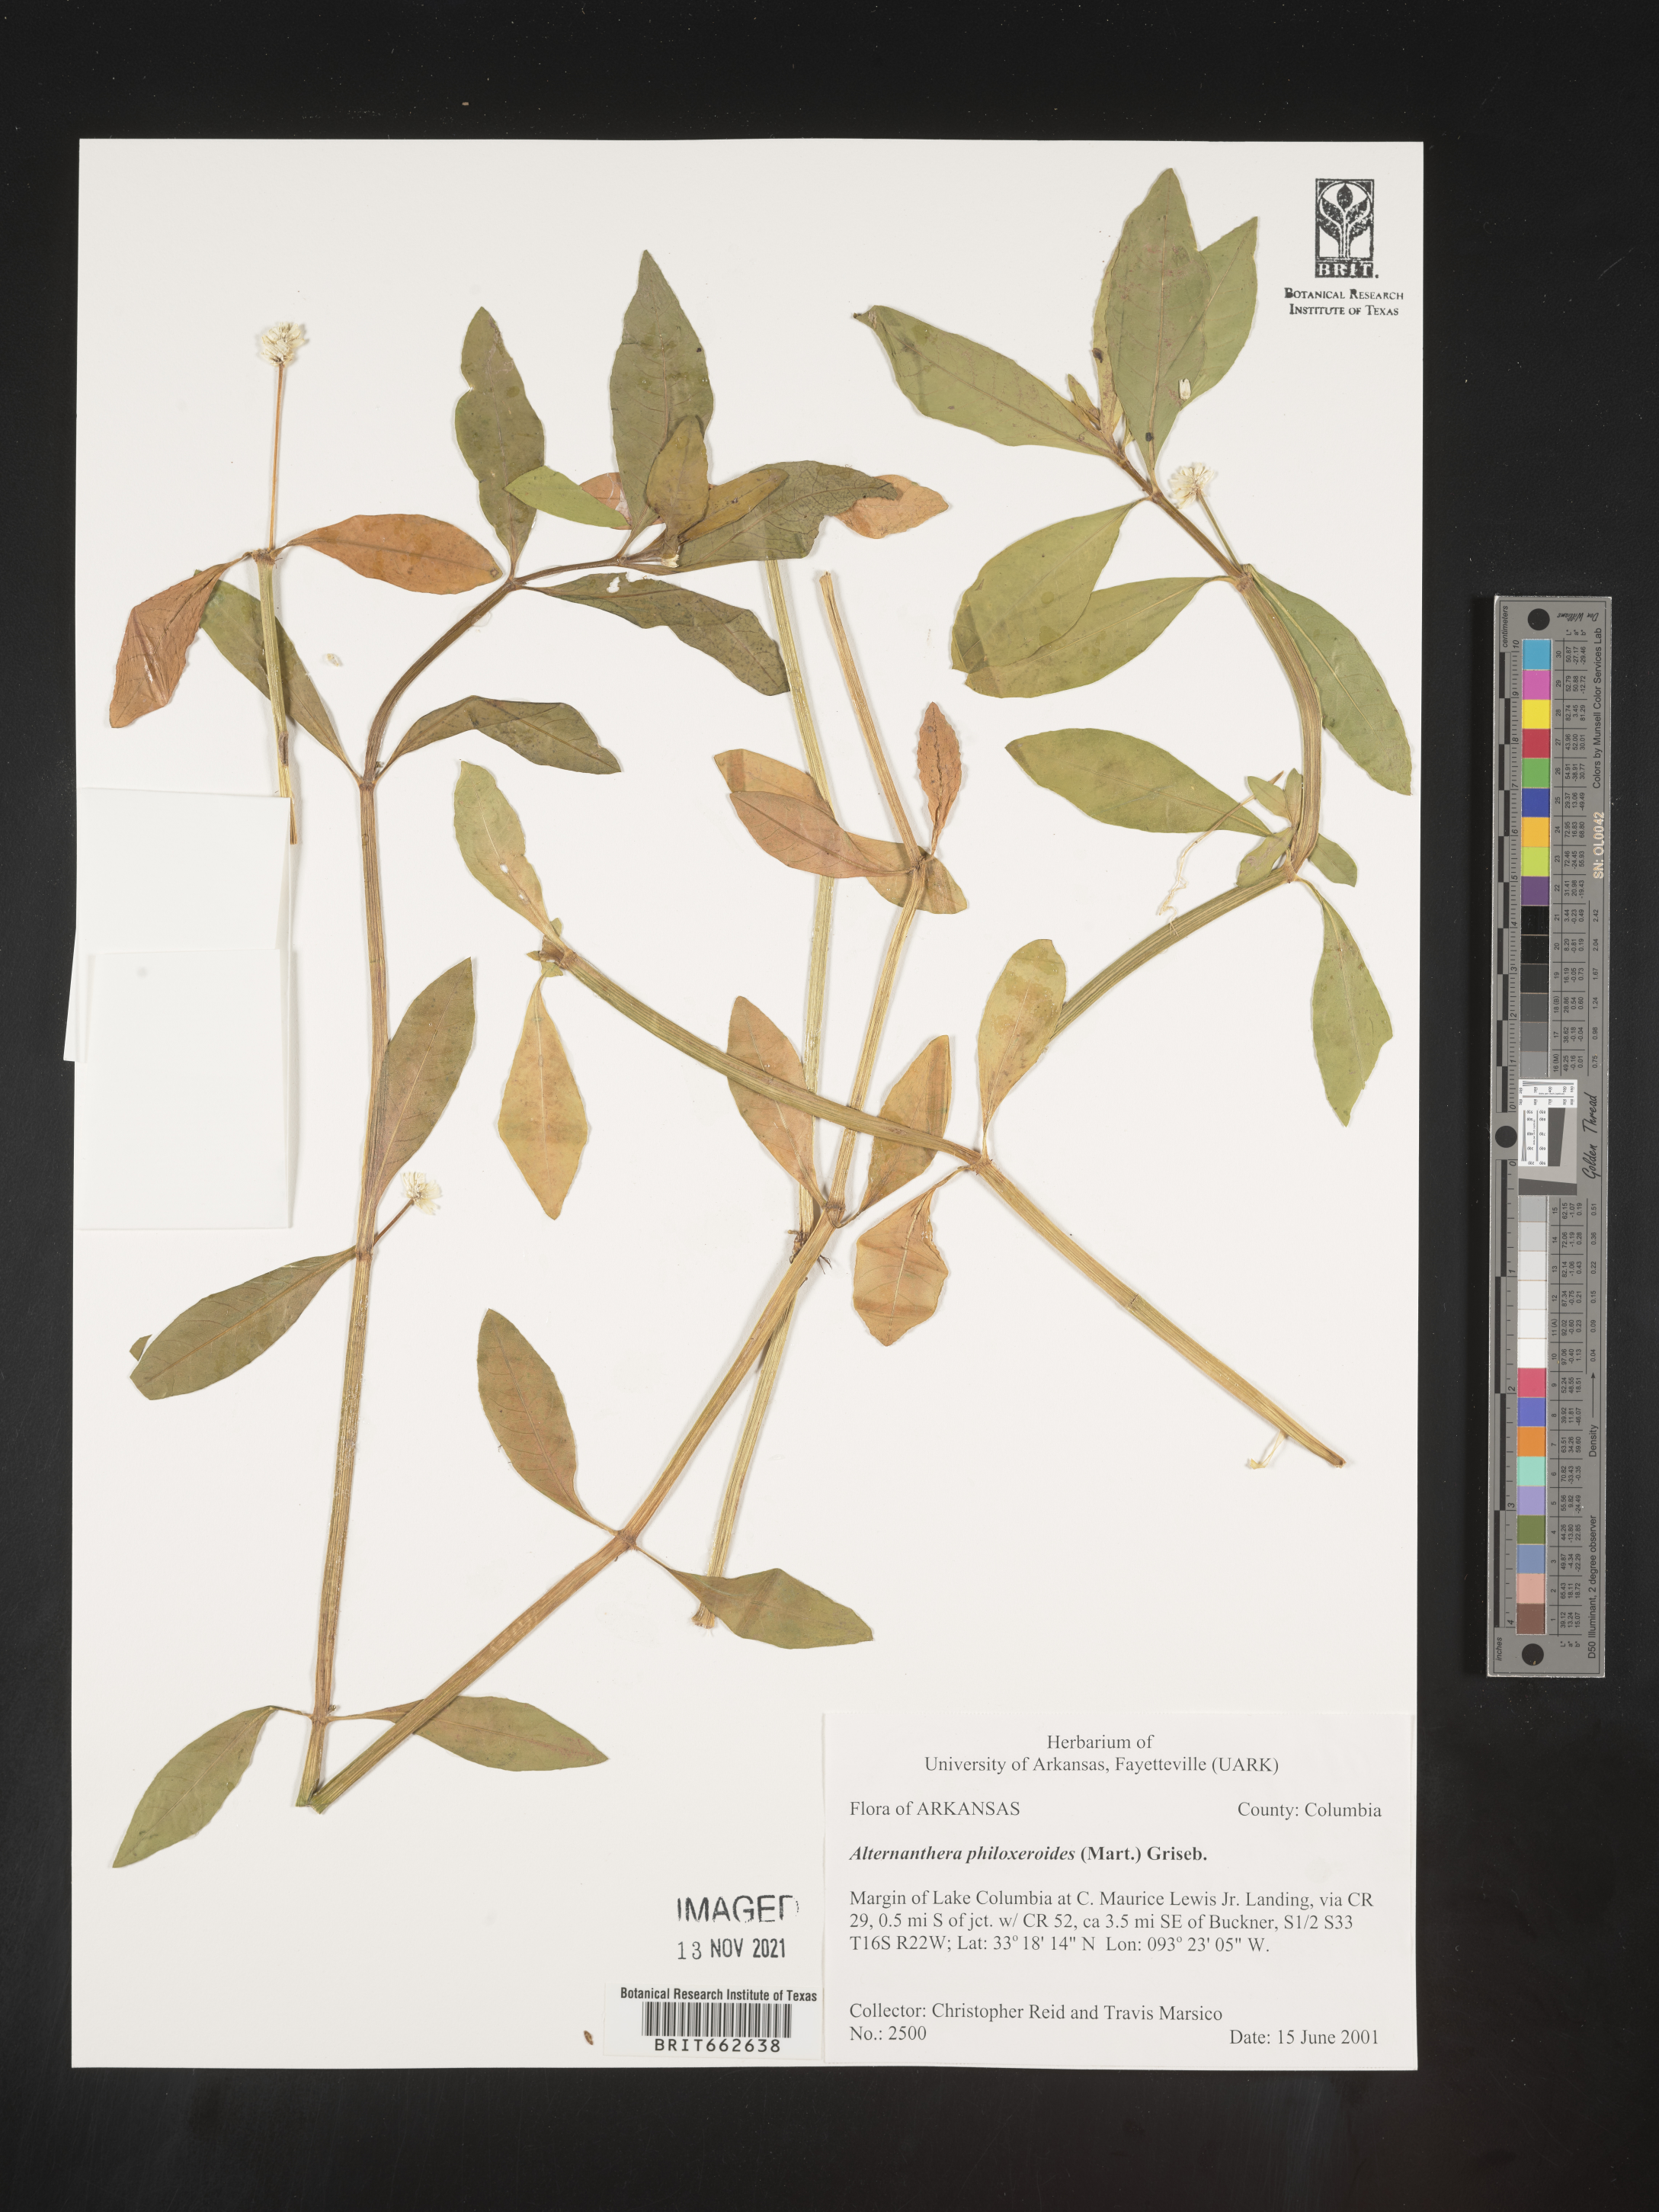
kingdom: Plantae
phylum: Tracheophyta
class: Magnoliopsida
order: Caryophyllales
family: Amaranthaceae
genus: Alternanthera
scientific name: Alternanthera philoxeroides
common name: Alligatorweed
